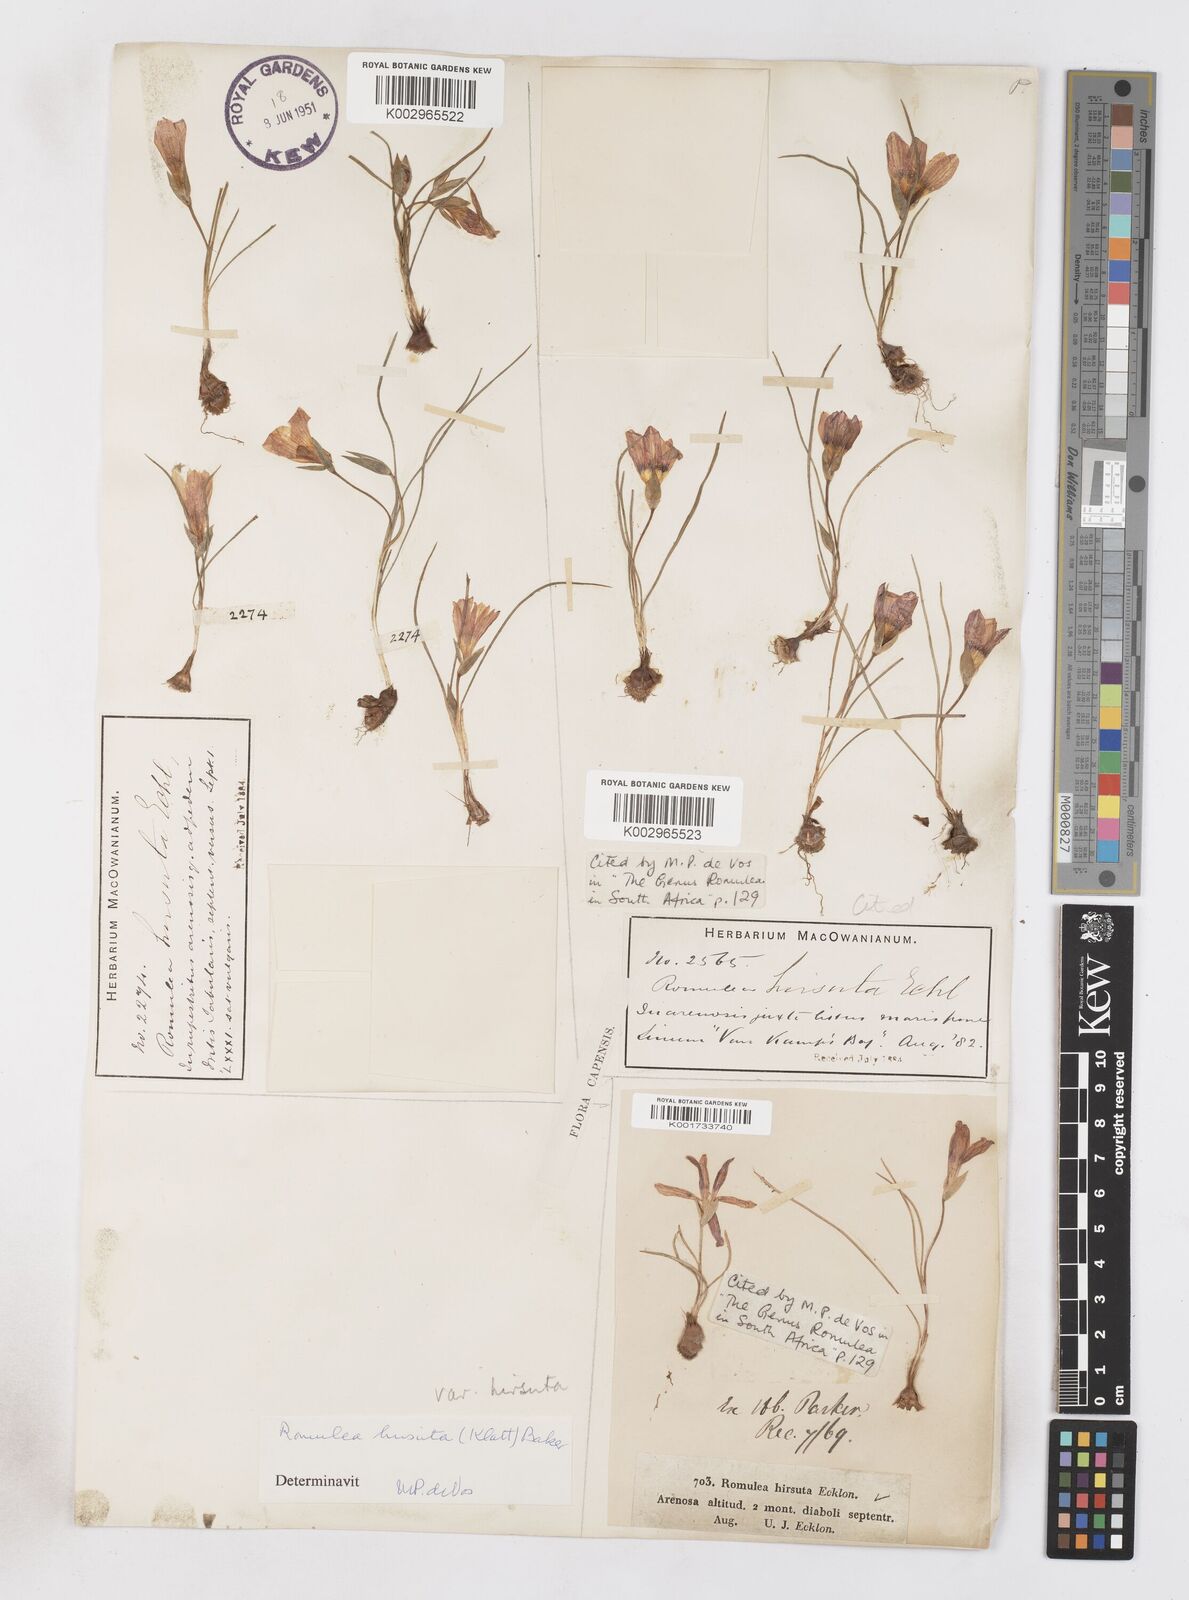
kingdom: Plantae
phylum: Tracheophyta
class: Liliopsida
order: Asparagales
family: Iridaceae
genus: Romulea
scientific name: Romulea hirsuta
